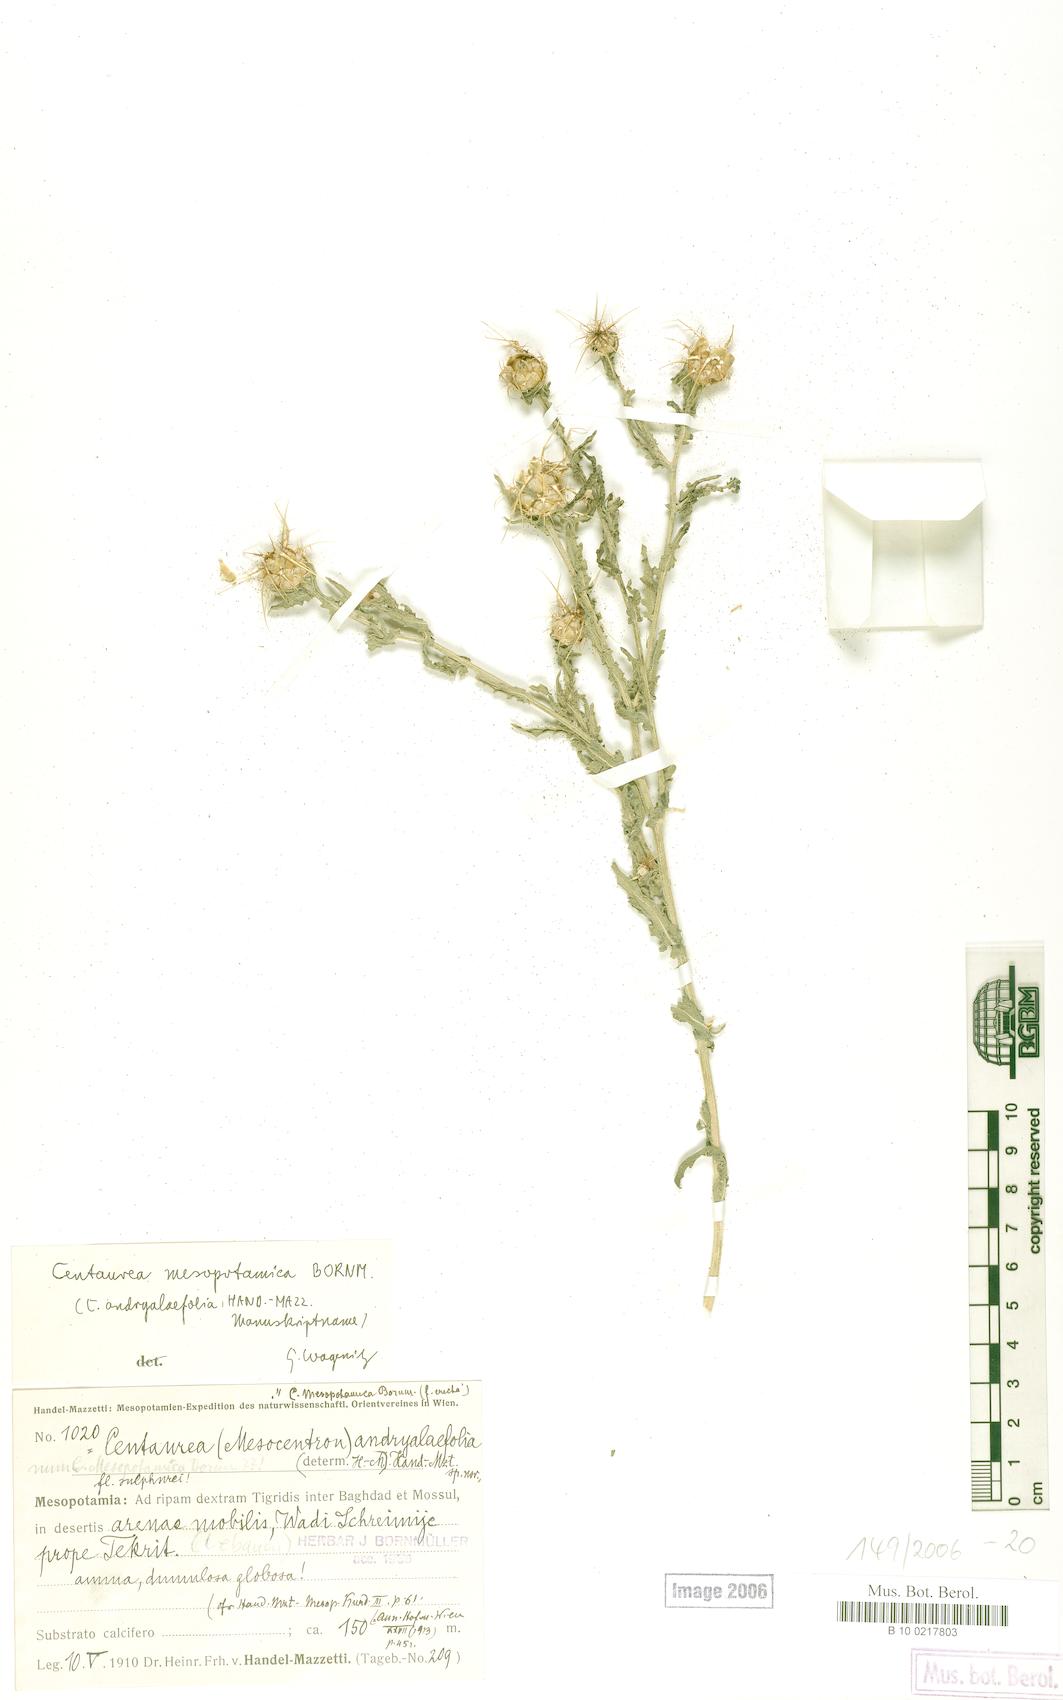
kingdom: Plantae
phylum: Tracheophyta
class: Magnoliopsida
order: Asterales
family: Asteraceae
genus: Centaurea
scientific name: Centaurea mesopotamica
